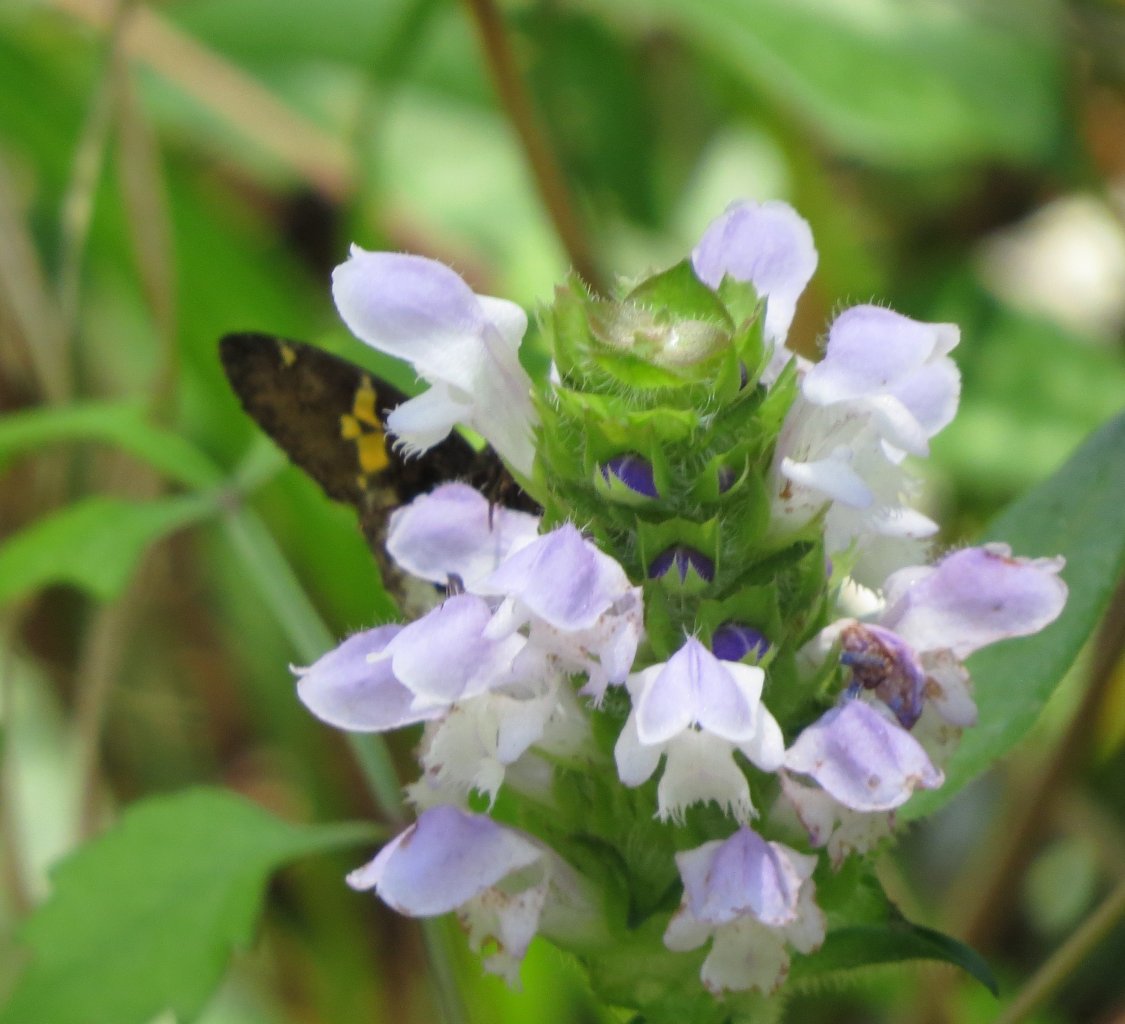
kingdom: Animalia
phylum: Arthropoda
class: Insecta
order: Lepidoptera
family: Hesperiidae
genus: Achalarus
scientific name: Achalarus lyciades
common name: Hoary Edge
